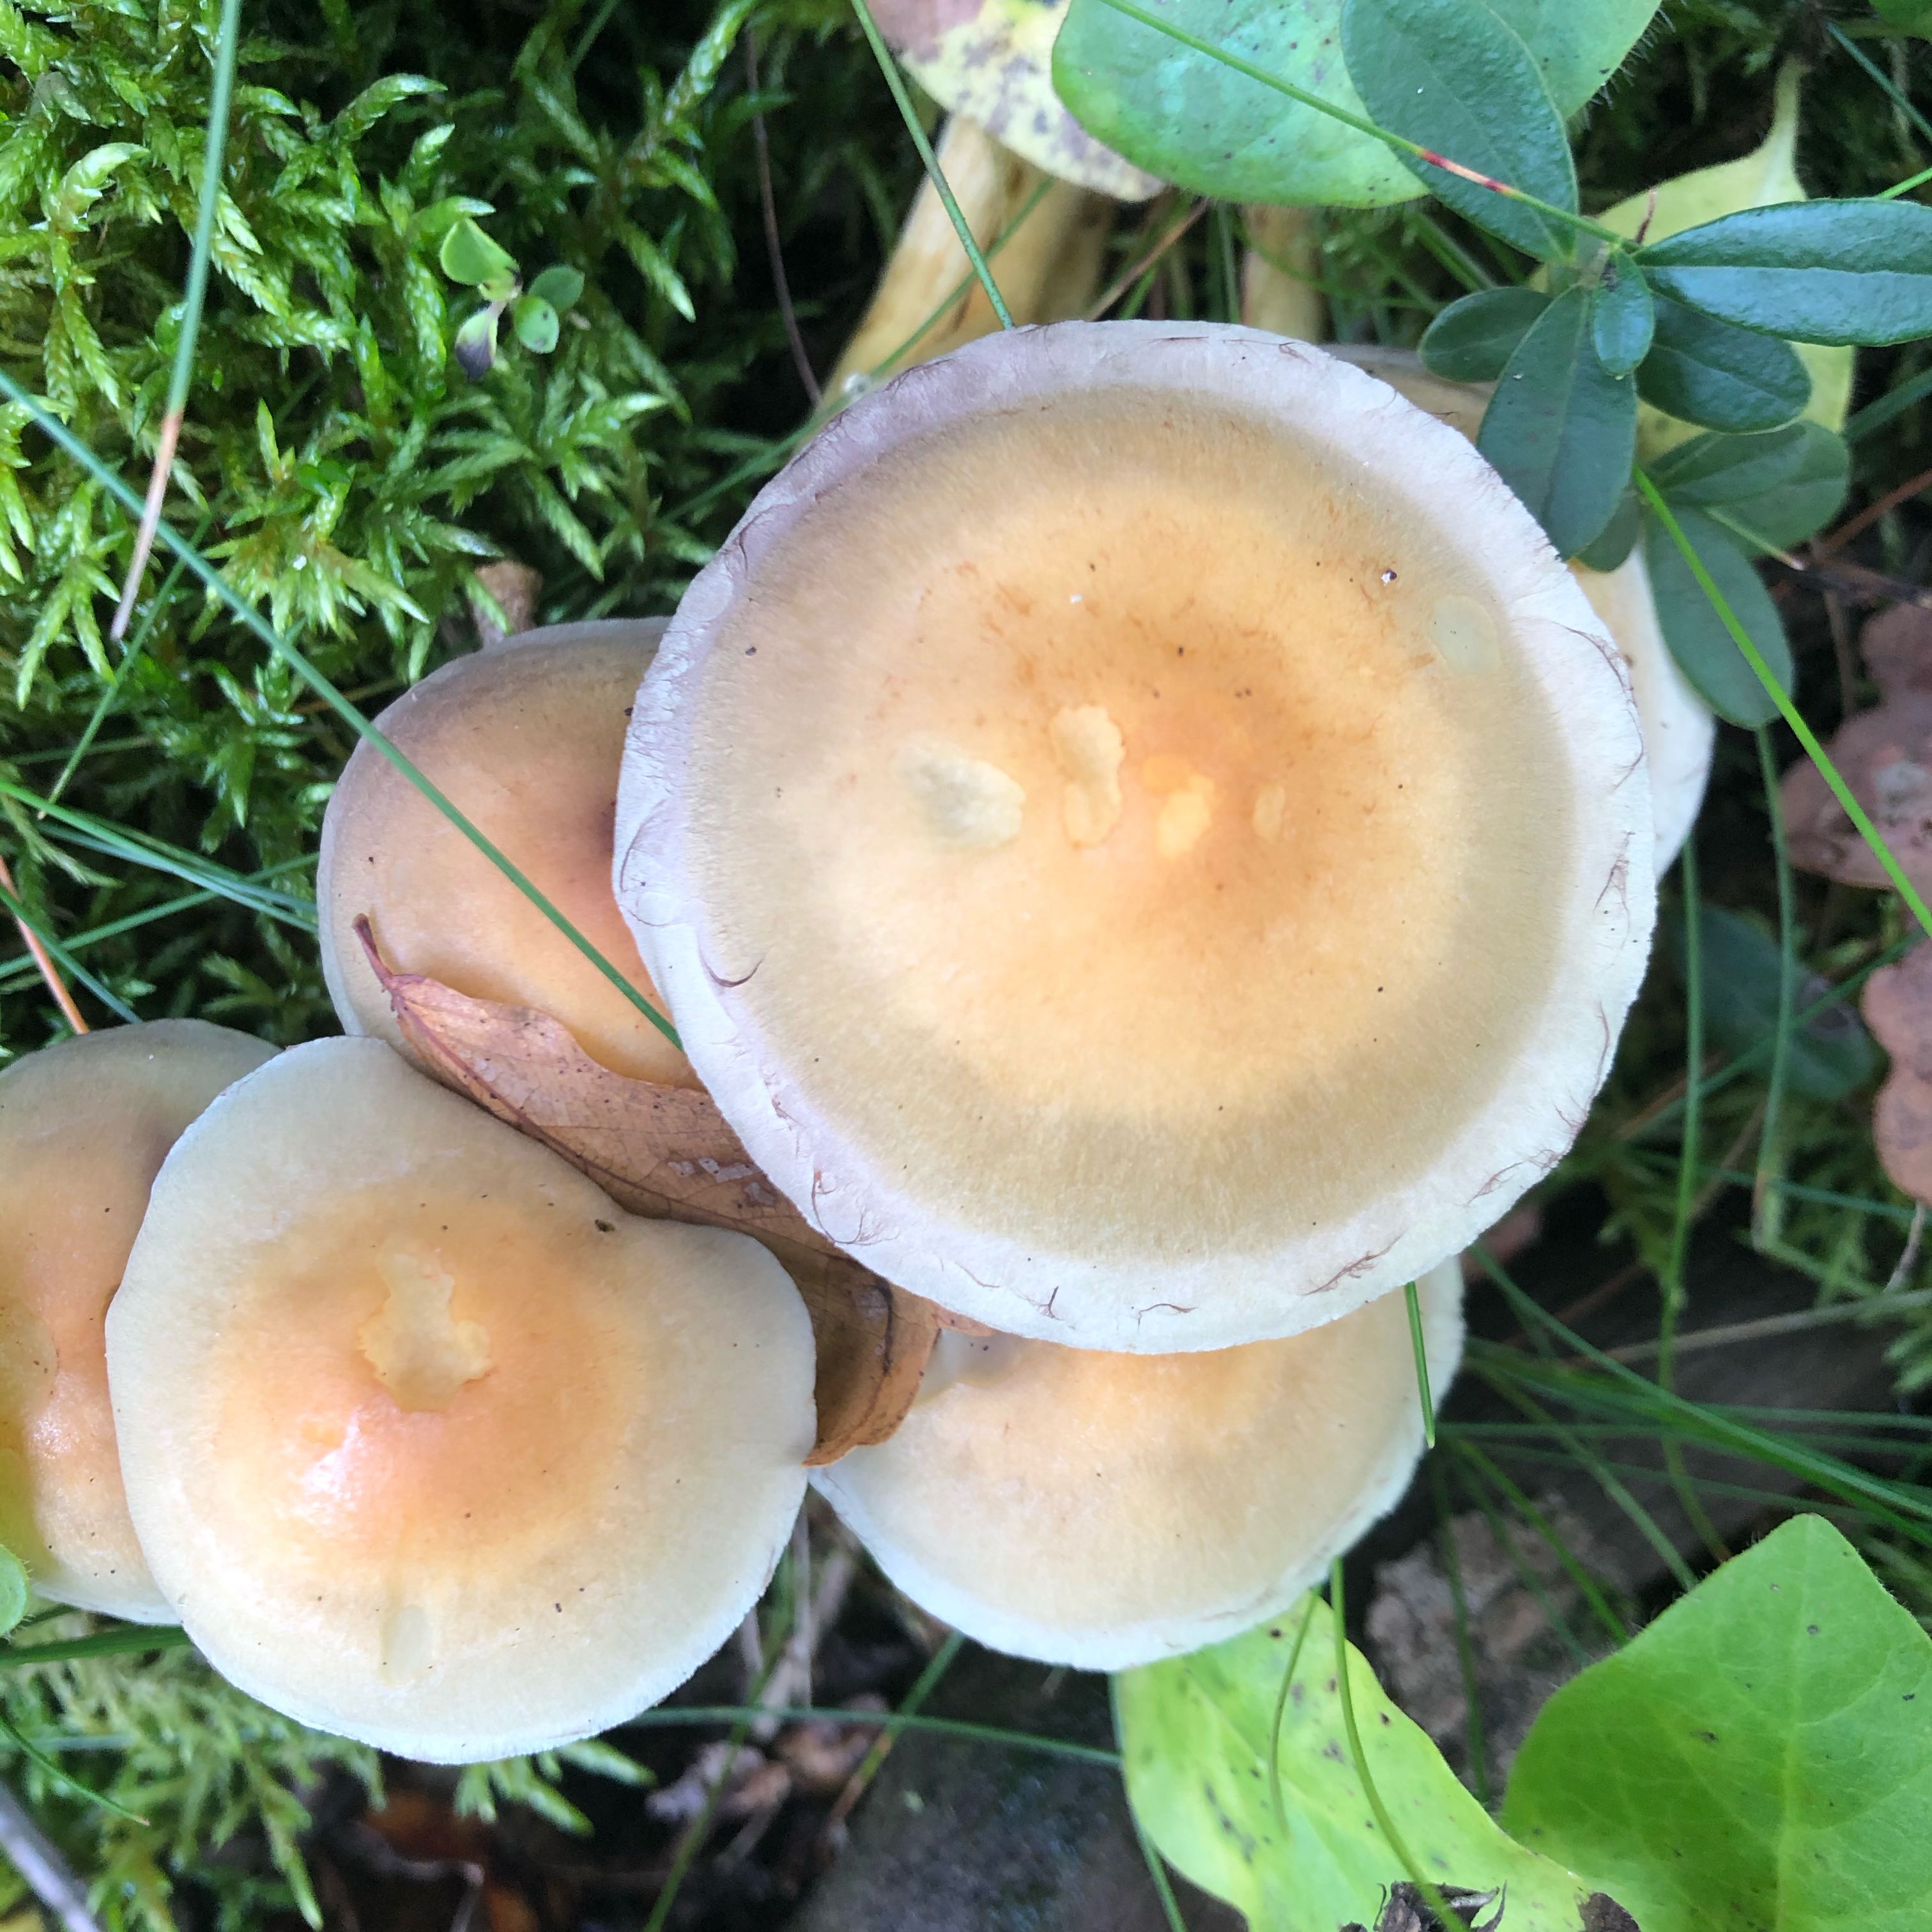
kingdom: Fungi
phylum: Basidiomycota
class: Agaricomycetes
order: Agaricales
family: Strophariaceae
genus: Hypholoma
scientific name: Hypholoma
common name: svovlhat
